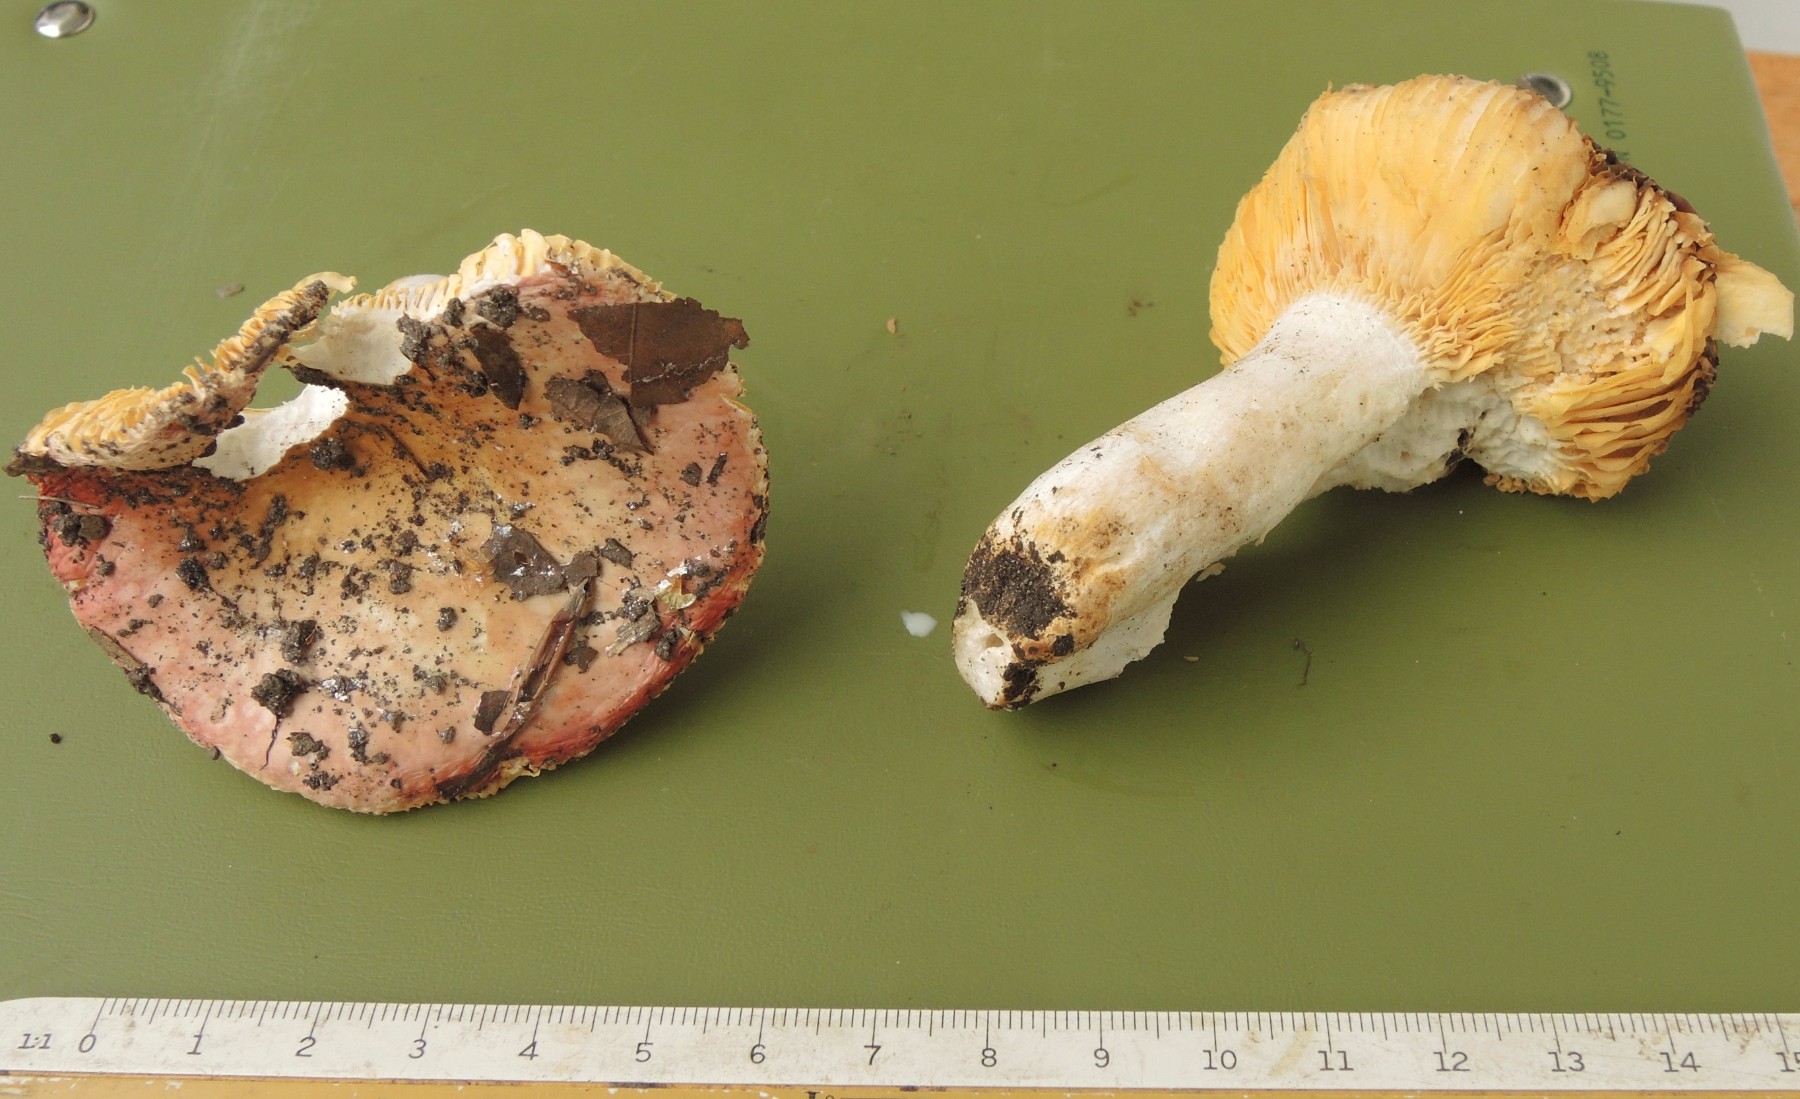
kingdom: Fungi
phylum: Basidiomycota
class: Agaricomycetes
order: Russulales
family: Russulaceae
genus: Russula
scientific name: Russula carpini
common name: avnbøg-skørhat
